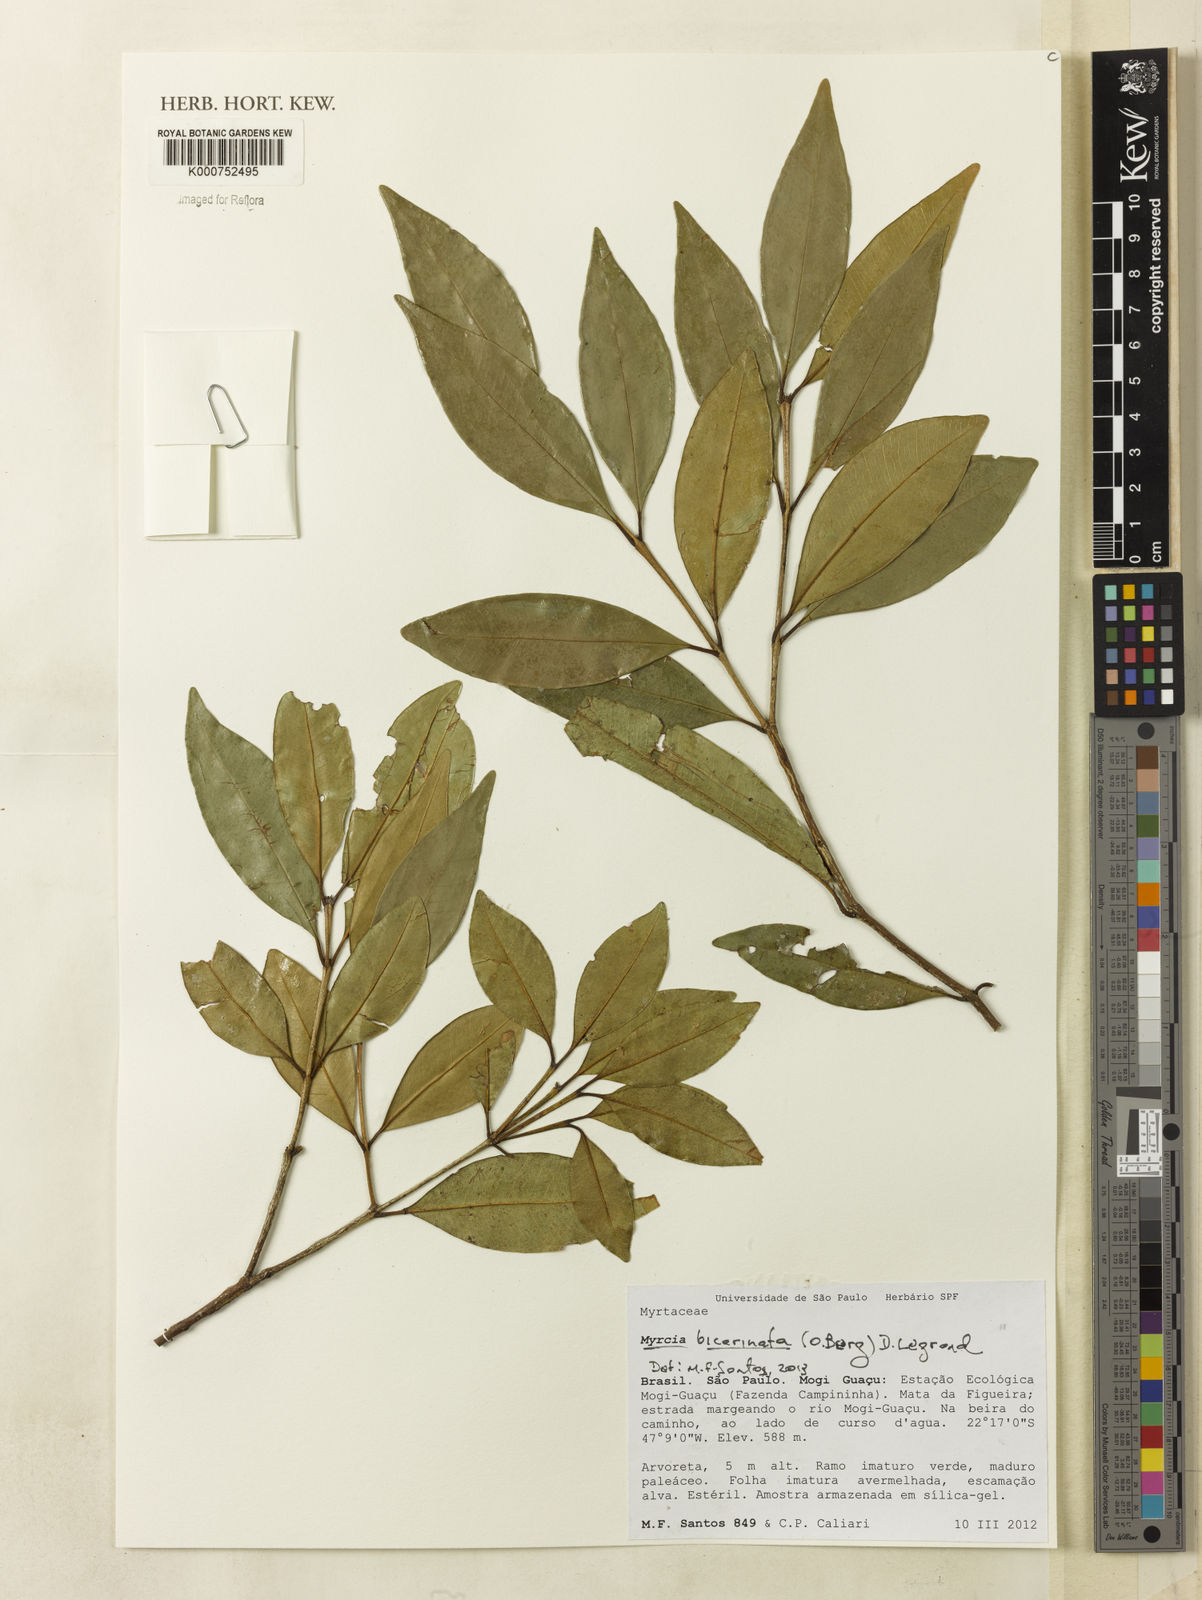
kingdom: Plantae
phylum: Tracheophyta
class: Magnoliopsida
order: Myrtales
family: Myrtaceae
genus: Myrcia
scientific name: Myrcia costeira
